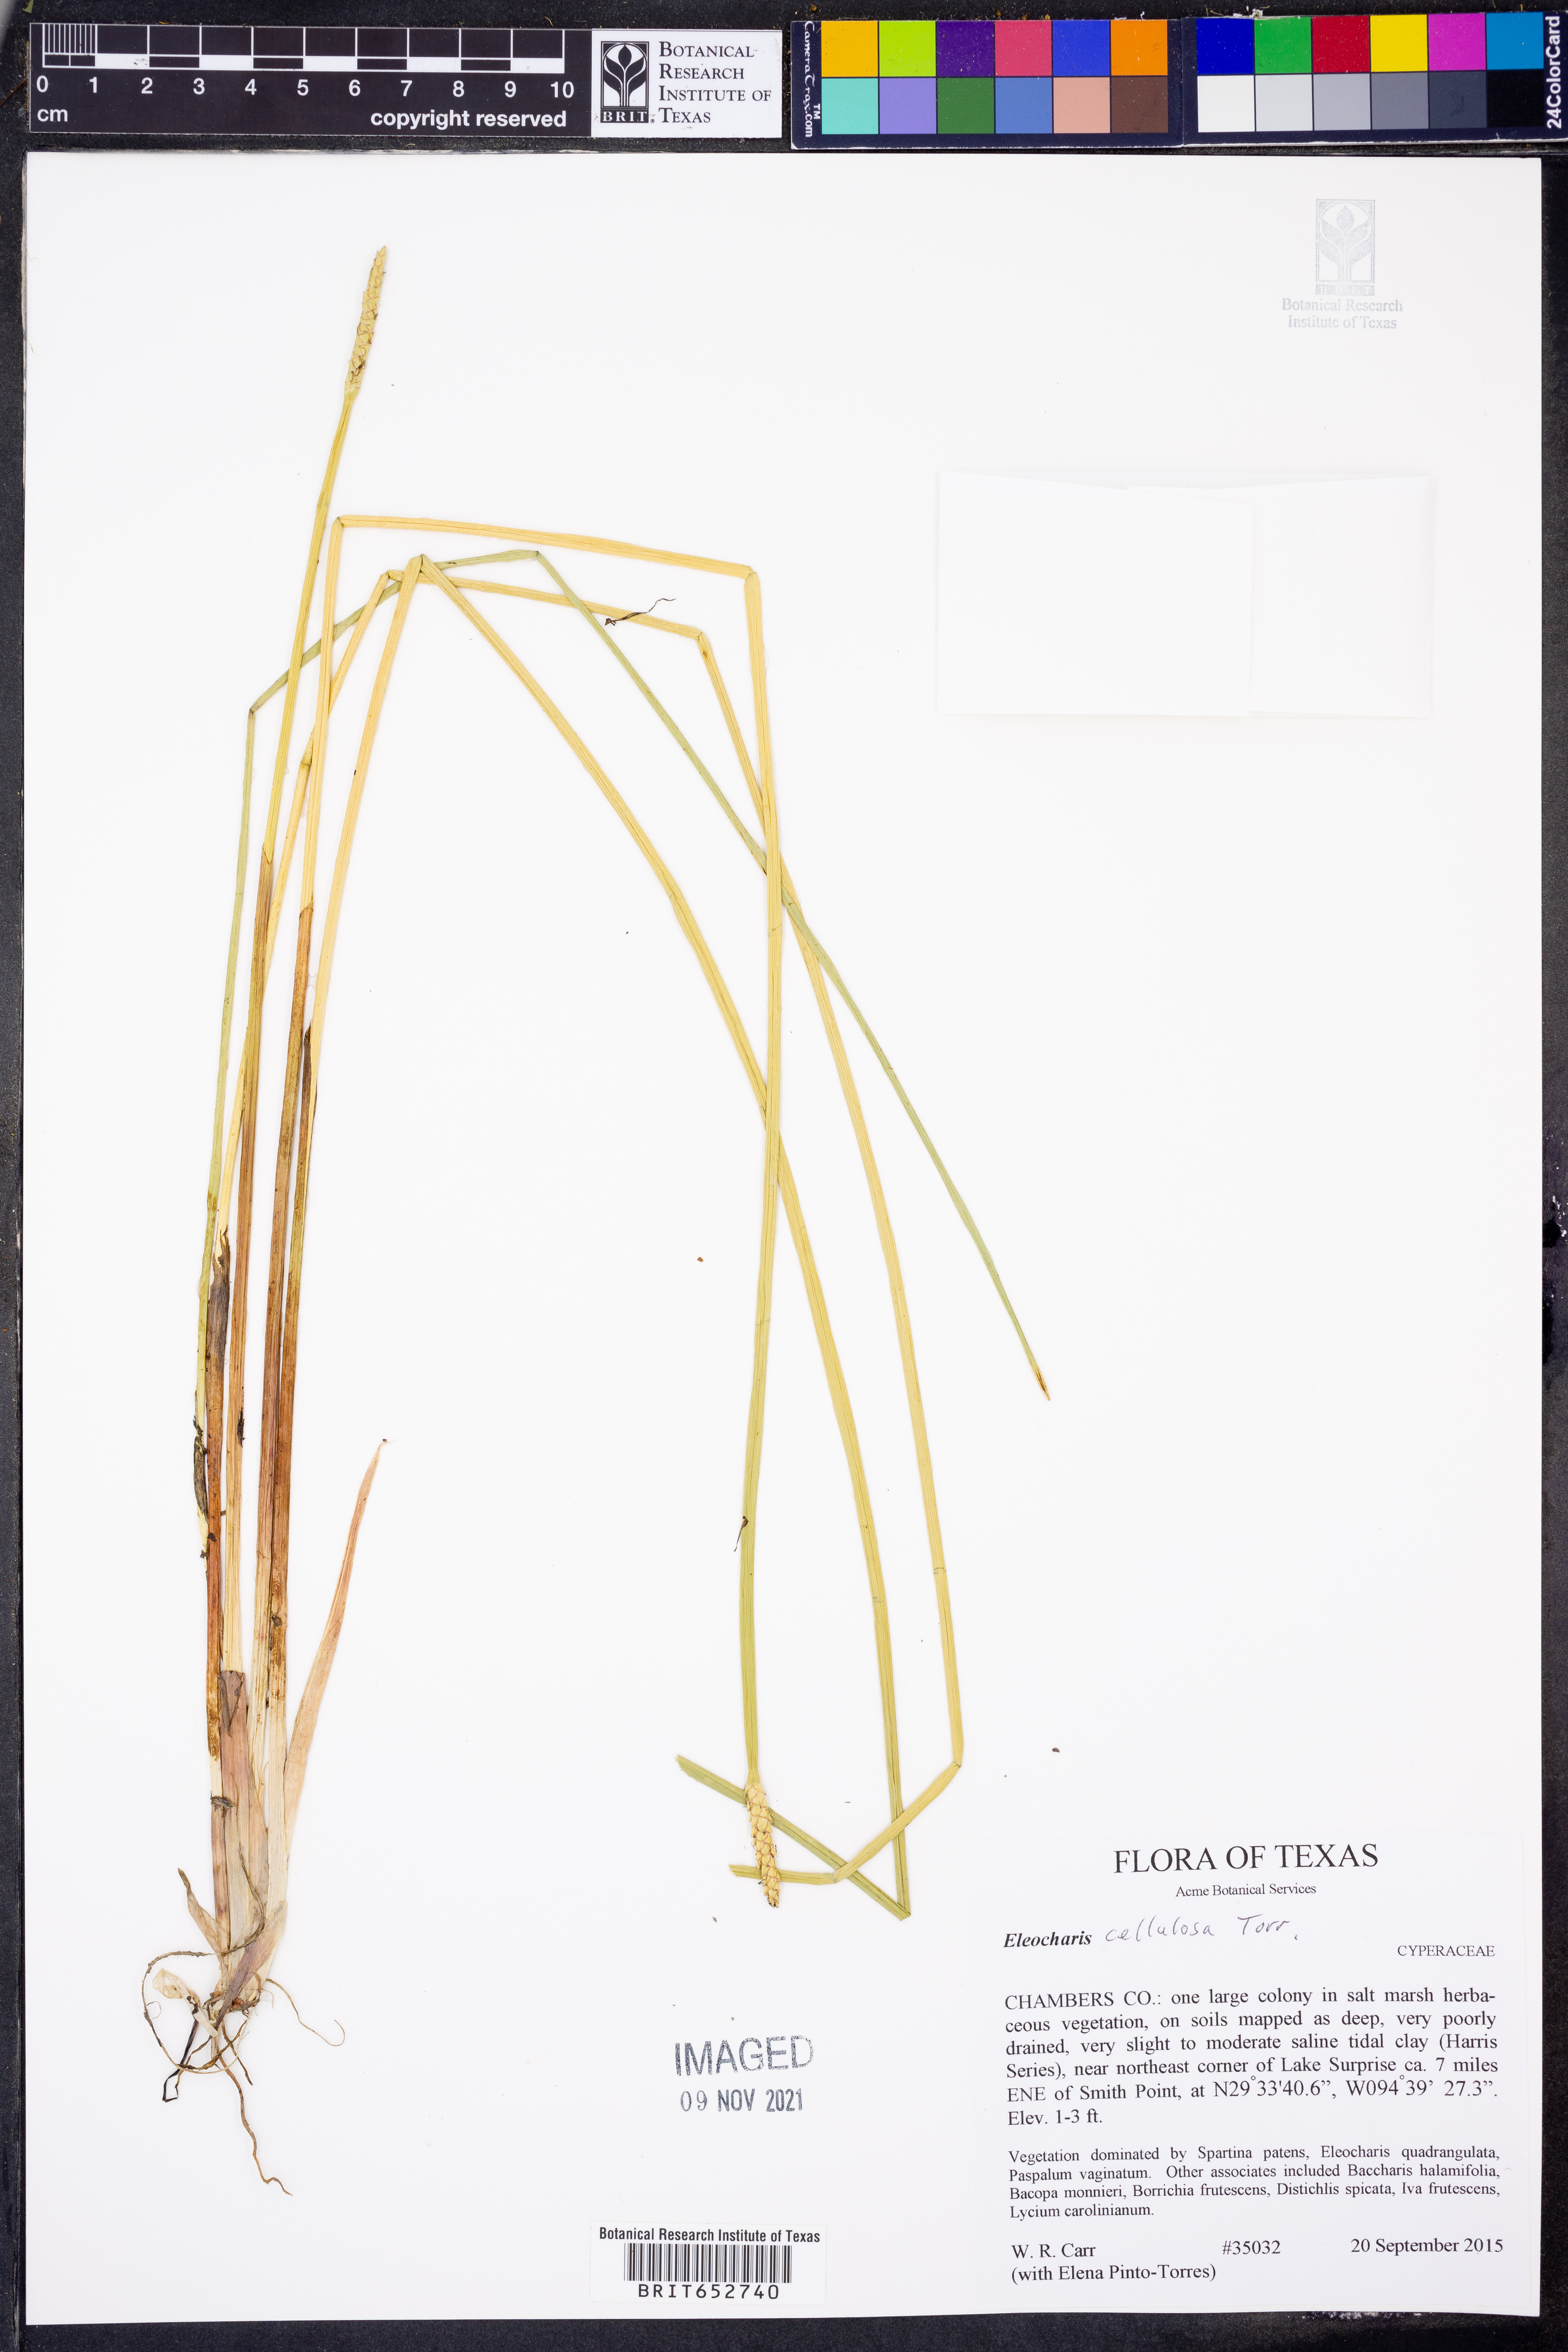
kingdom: Plantae
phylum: Tracheophyta
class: Liliopsida
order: Poales
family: Cyperaceae
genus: Eleocharis
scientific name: Eleocharis cellulosa
